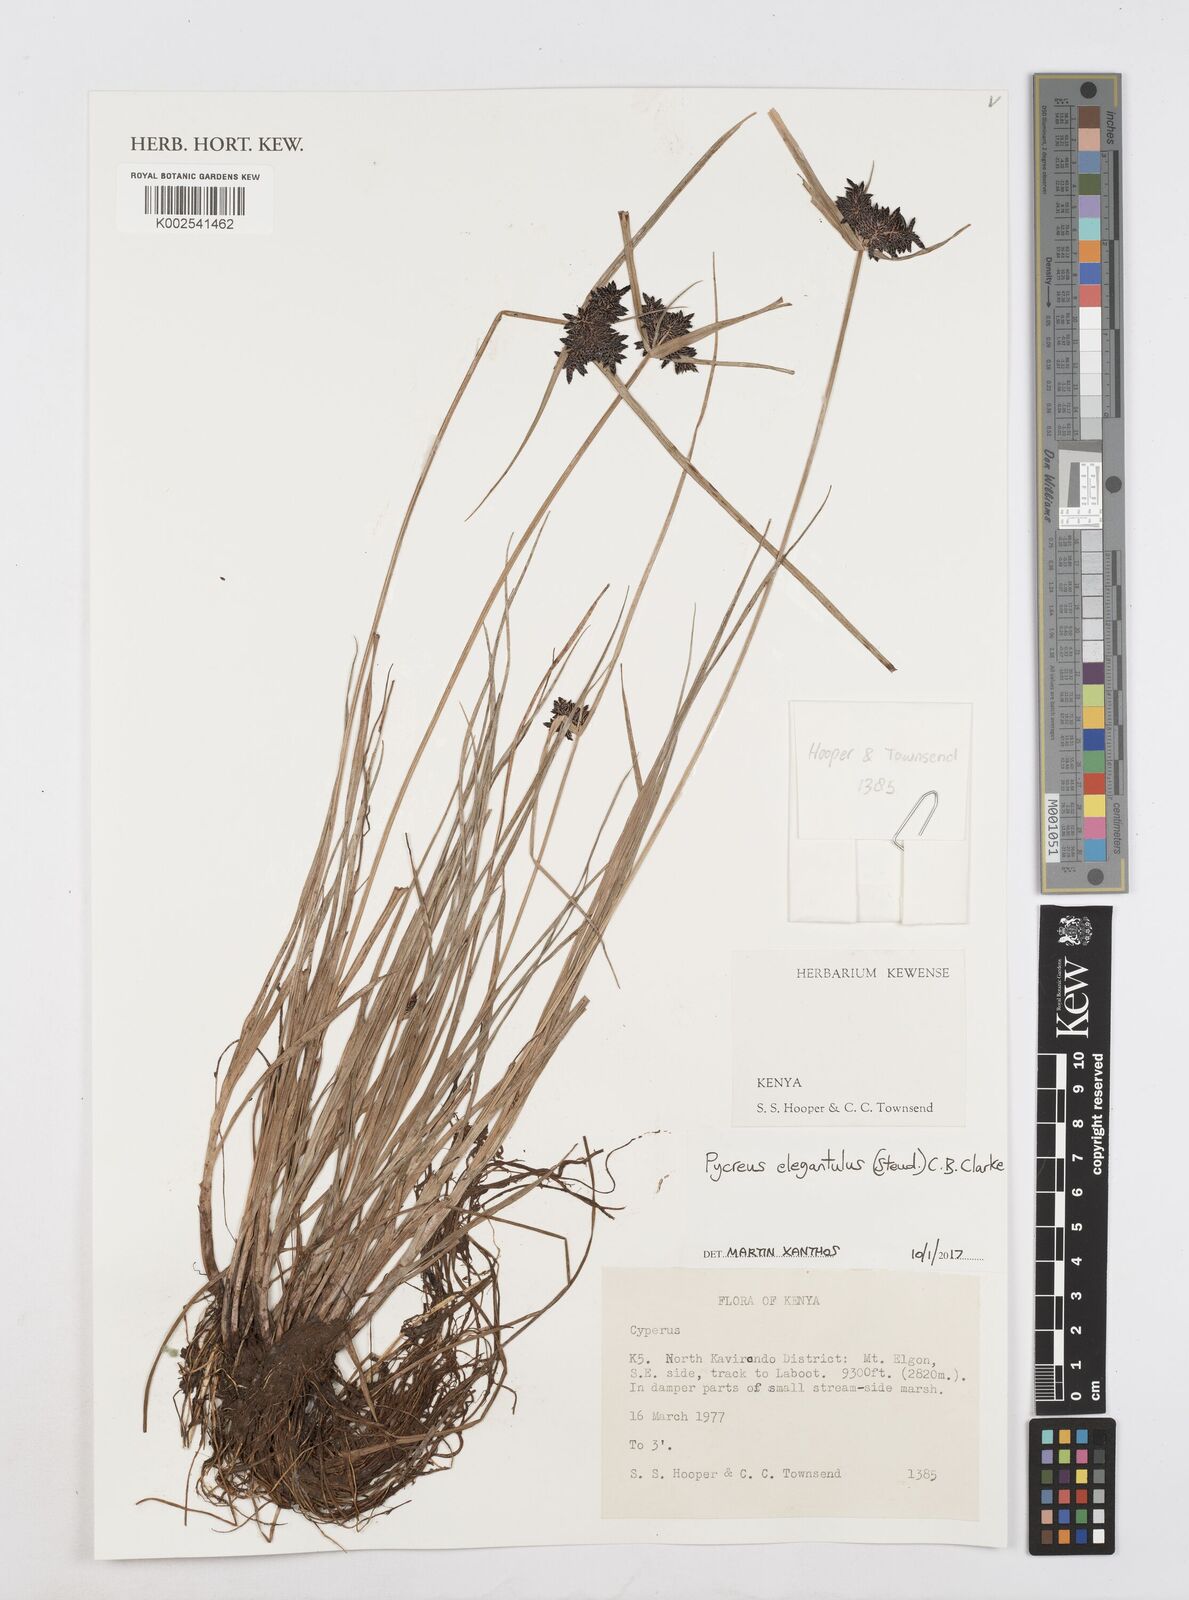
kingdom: Plantae
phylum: Tracheophyta
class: Liliopsida
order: Poales
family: Cyperaceae
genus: Cyperus
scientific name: Cyperus elegantulus
